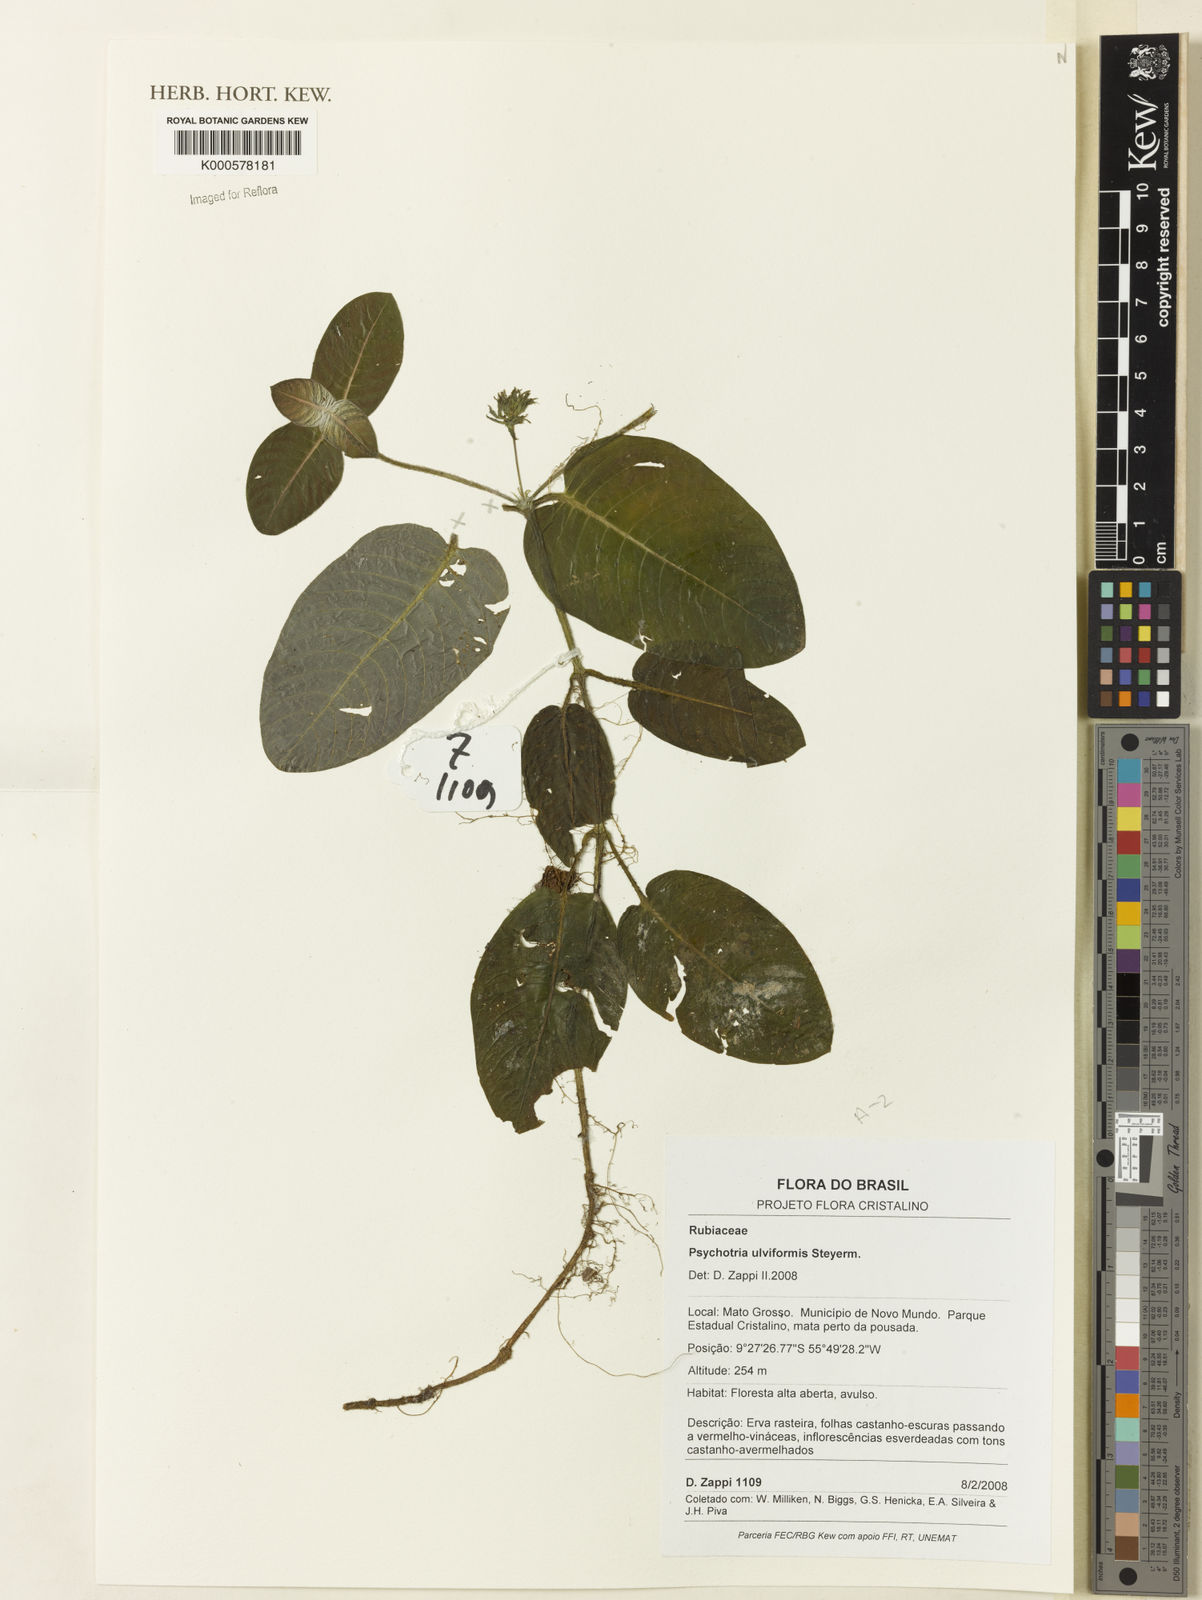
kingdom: Plantae
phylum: Tracheophyta
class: Magnoliopsida
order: Gentianales
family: Rubiaceae
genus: Palicourea
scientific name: Palicourea alba
